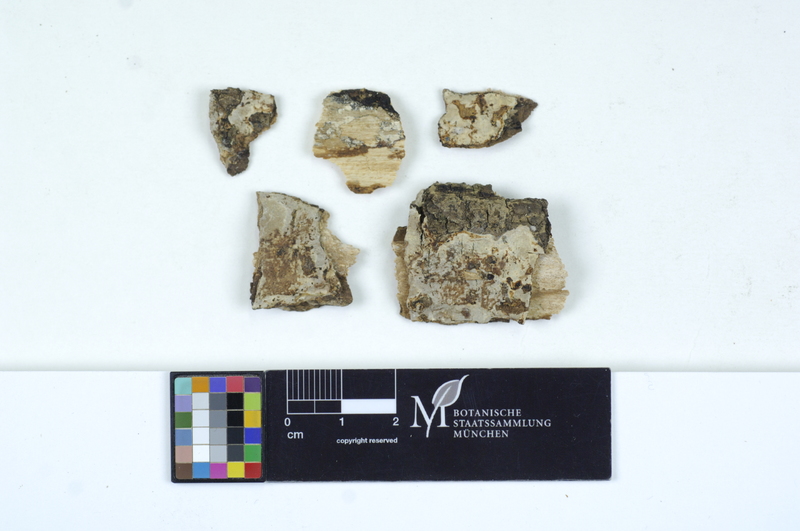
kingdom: Fungi
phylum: Basidiomycota
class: Agaricomycetes
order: Auriculariales
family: Auriculariaceae
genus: Heteroradulum
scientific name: Heteroradulum deglubens
